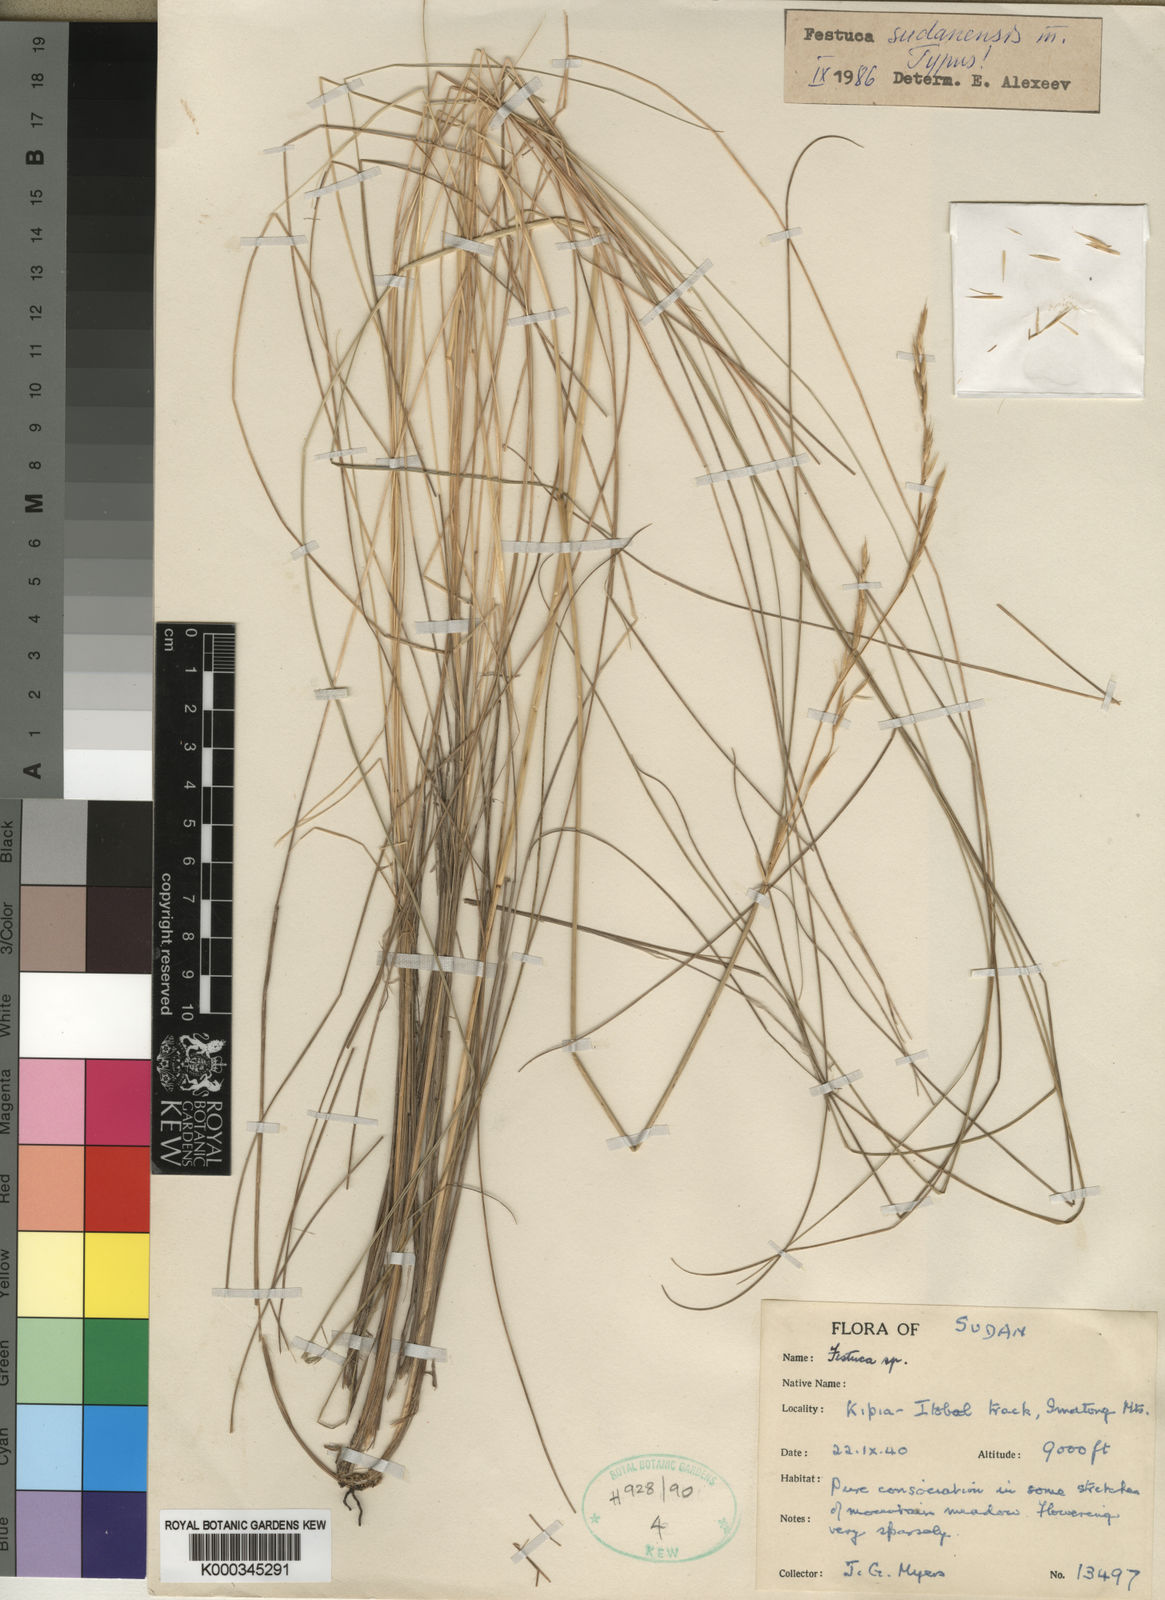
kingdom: Plantae
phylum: Tracheophyta
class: Liliopsida
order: Poales
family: Poaceae
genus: Festuca
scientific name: Festuca sudanensis
